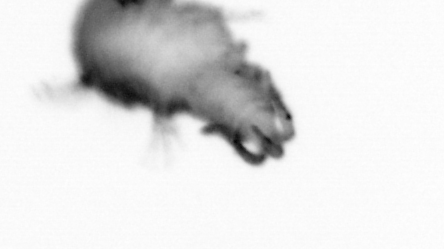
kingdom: Animalia
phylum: Annelida
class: Polychaeta
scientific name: Polychaeta
